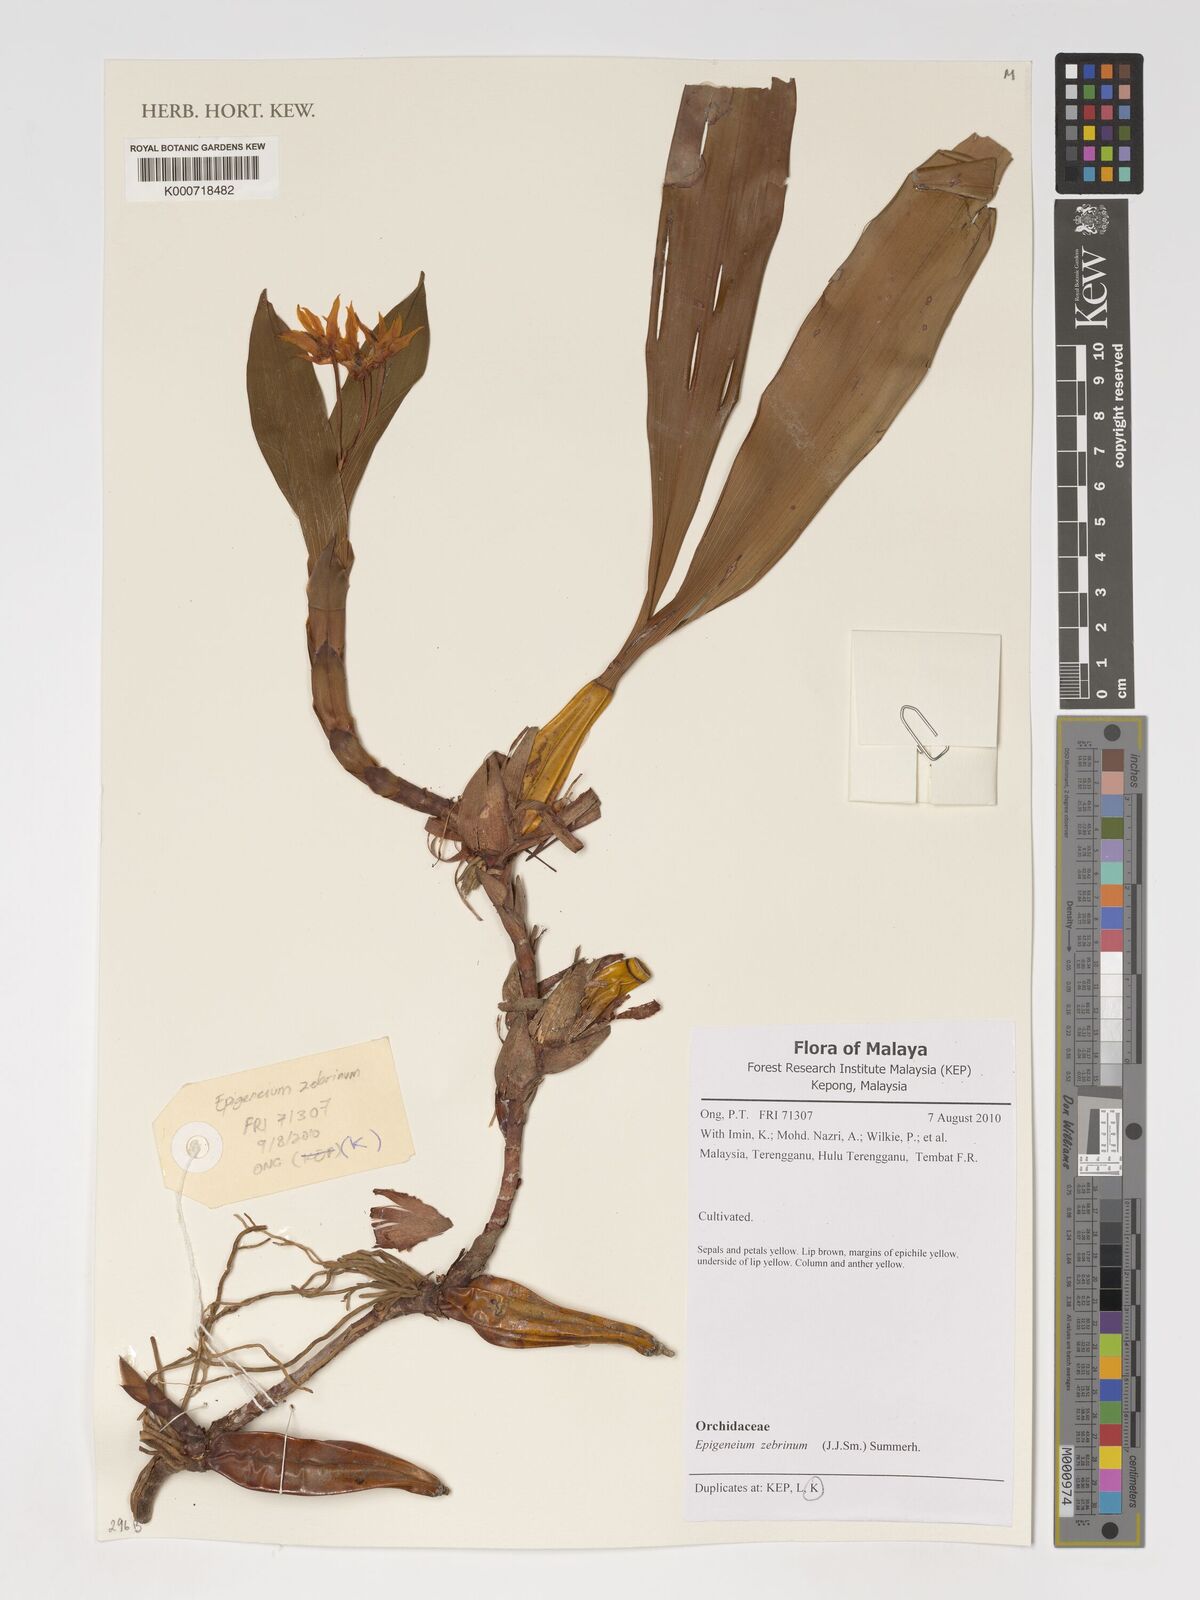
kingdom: Plantae
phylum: Tracheophyta
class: Liliopsida
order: Asparagales
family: Orchidaceae
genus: Dendrobium
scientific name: Dendrobium zebrinum
